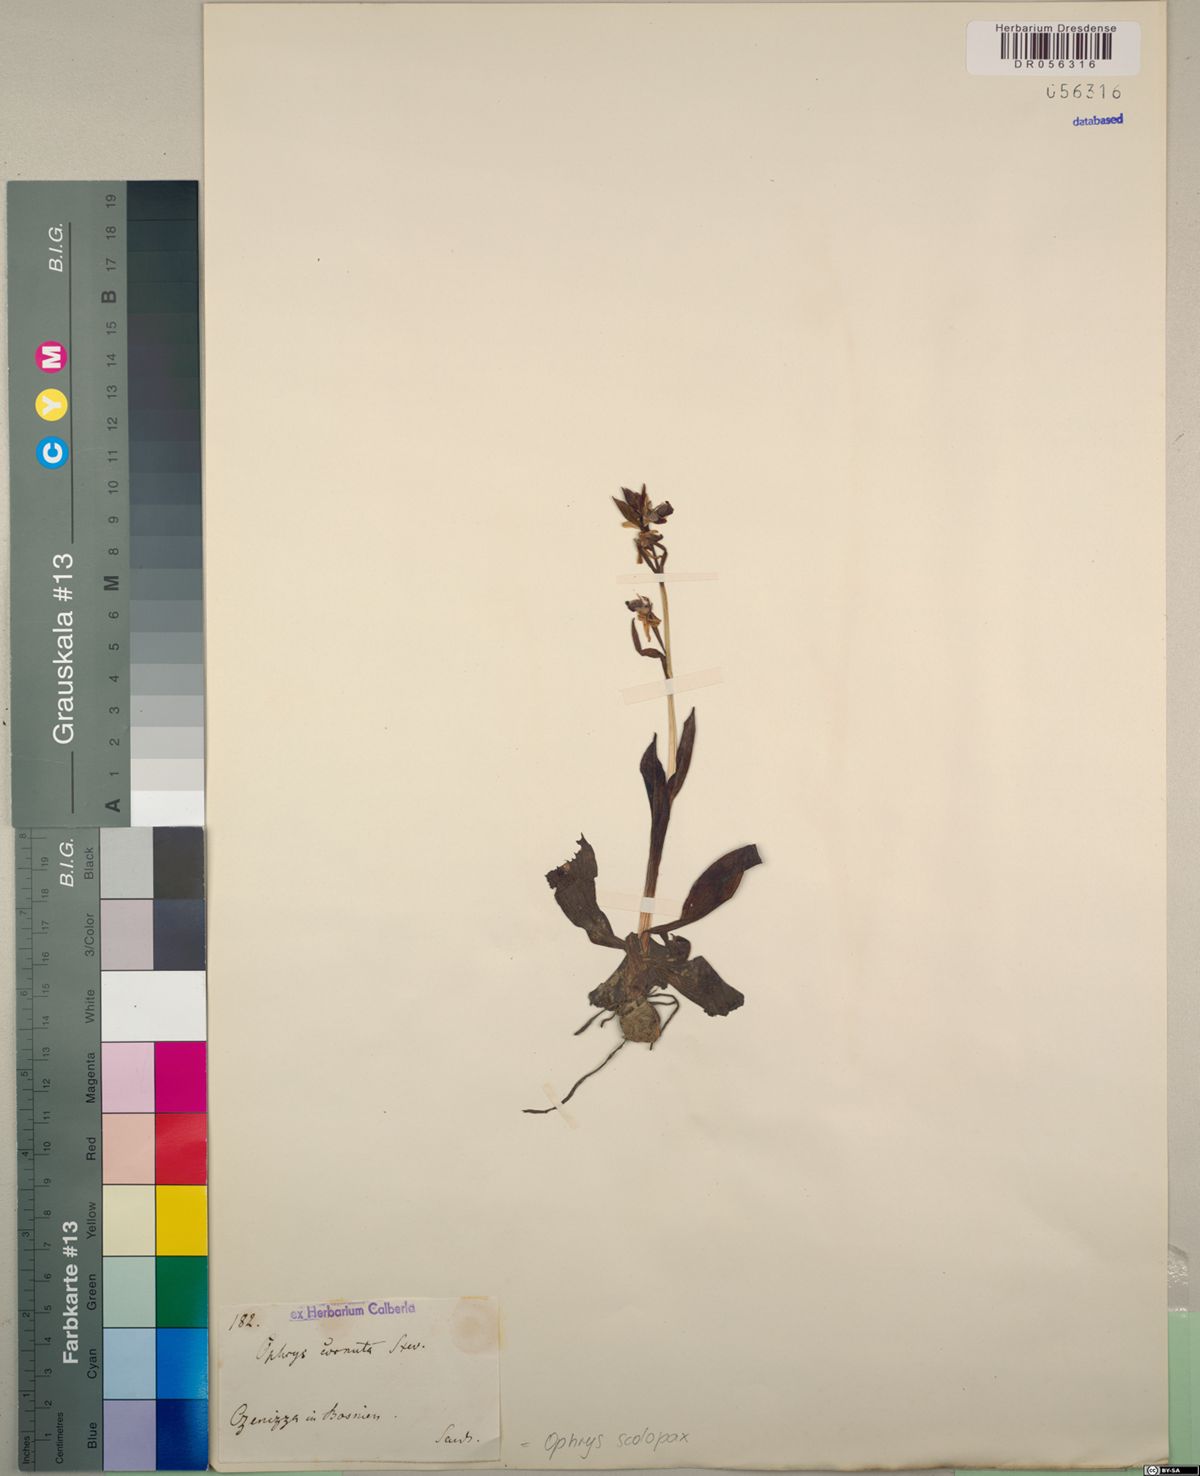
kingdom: Plantae
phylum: Tracheophyta
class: Liliopsida
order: Asparagales
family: Orchidaceae
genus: Ophrys
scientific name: Ophrys scolopax
